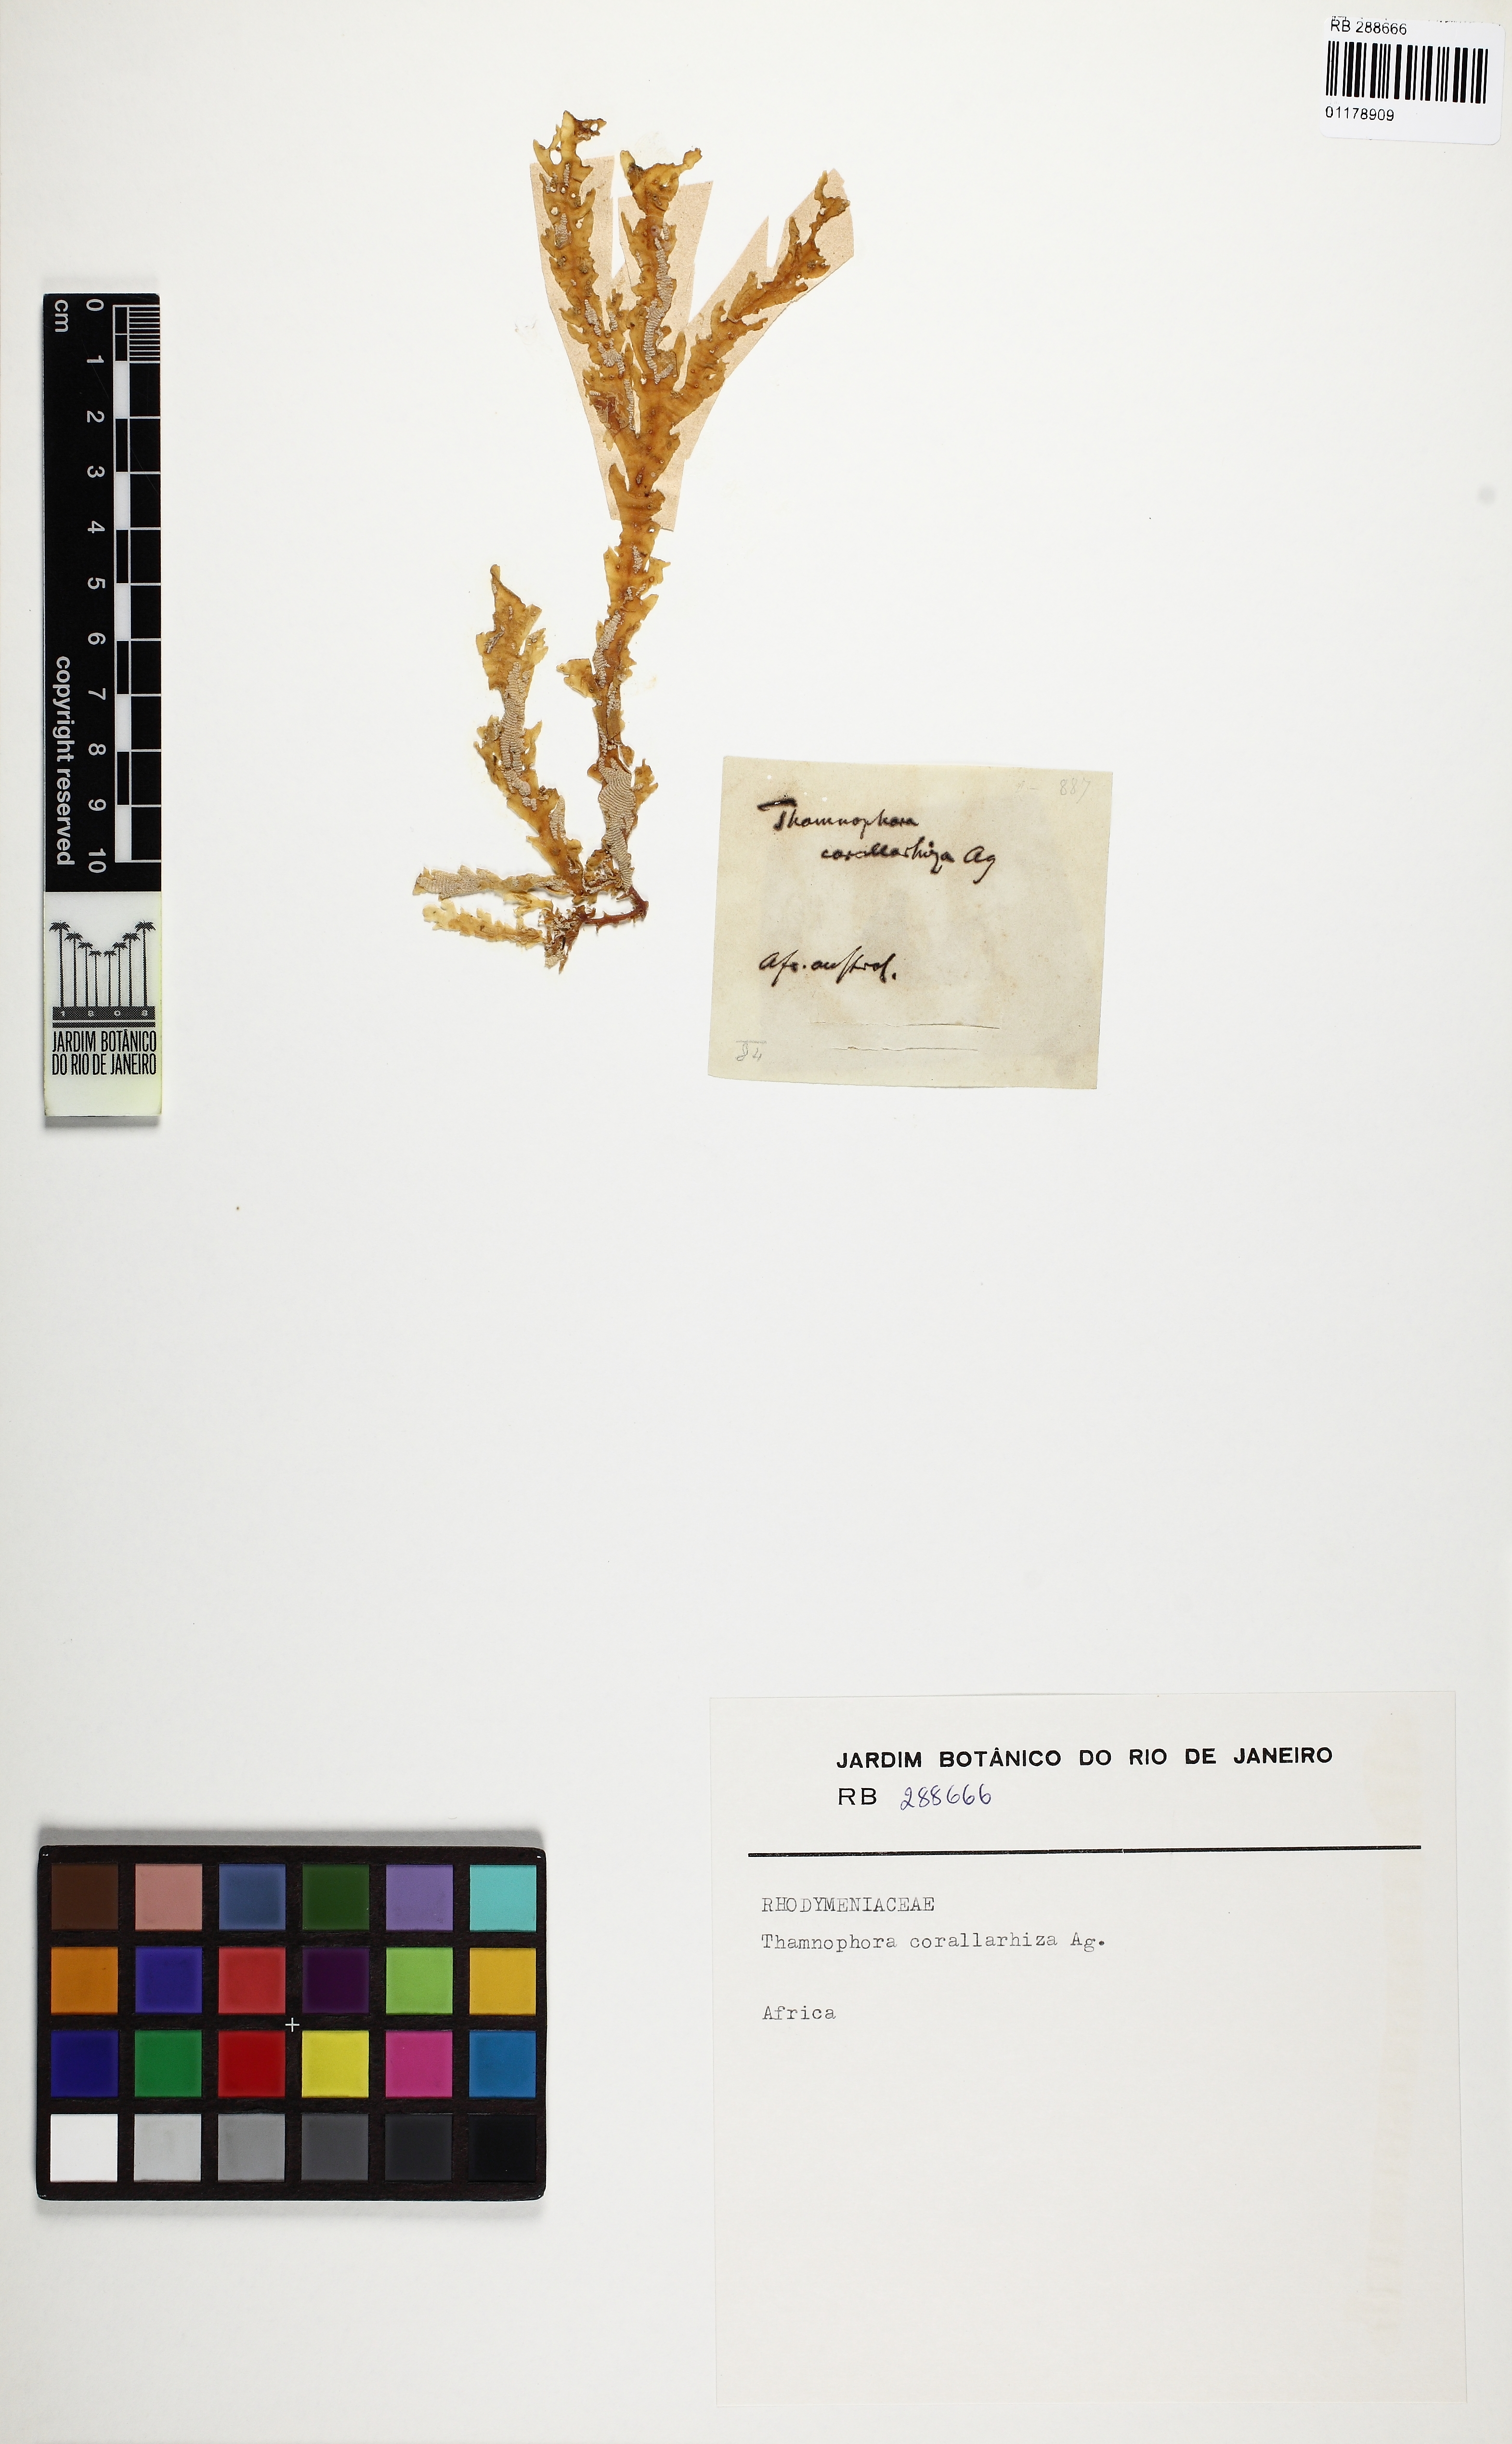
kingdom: Plantae
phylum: Rhodophyta
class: Florideophyceae
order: Plocamiales
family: Plocamiaceae
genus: Plocamium
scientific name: Plocamium corallorhiza
